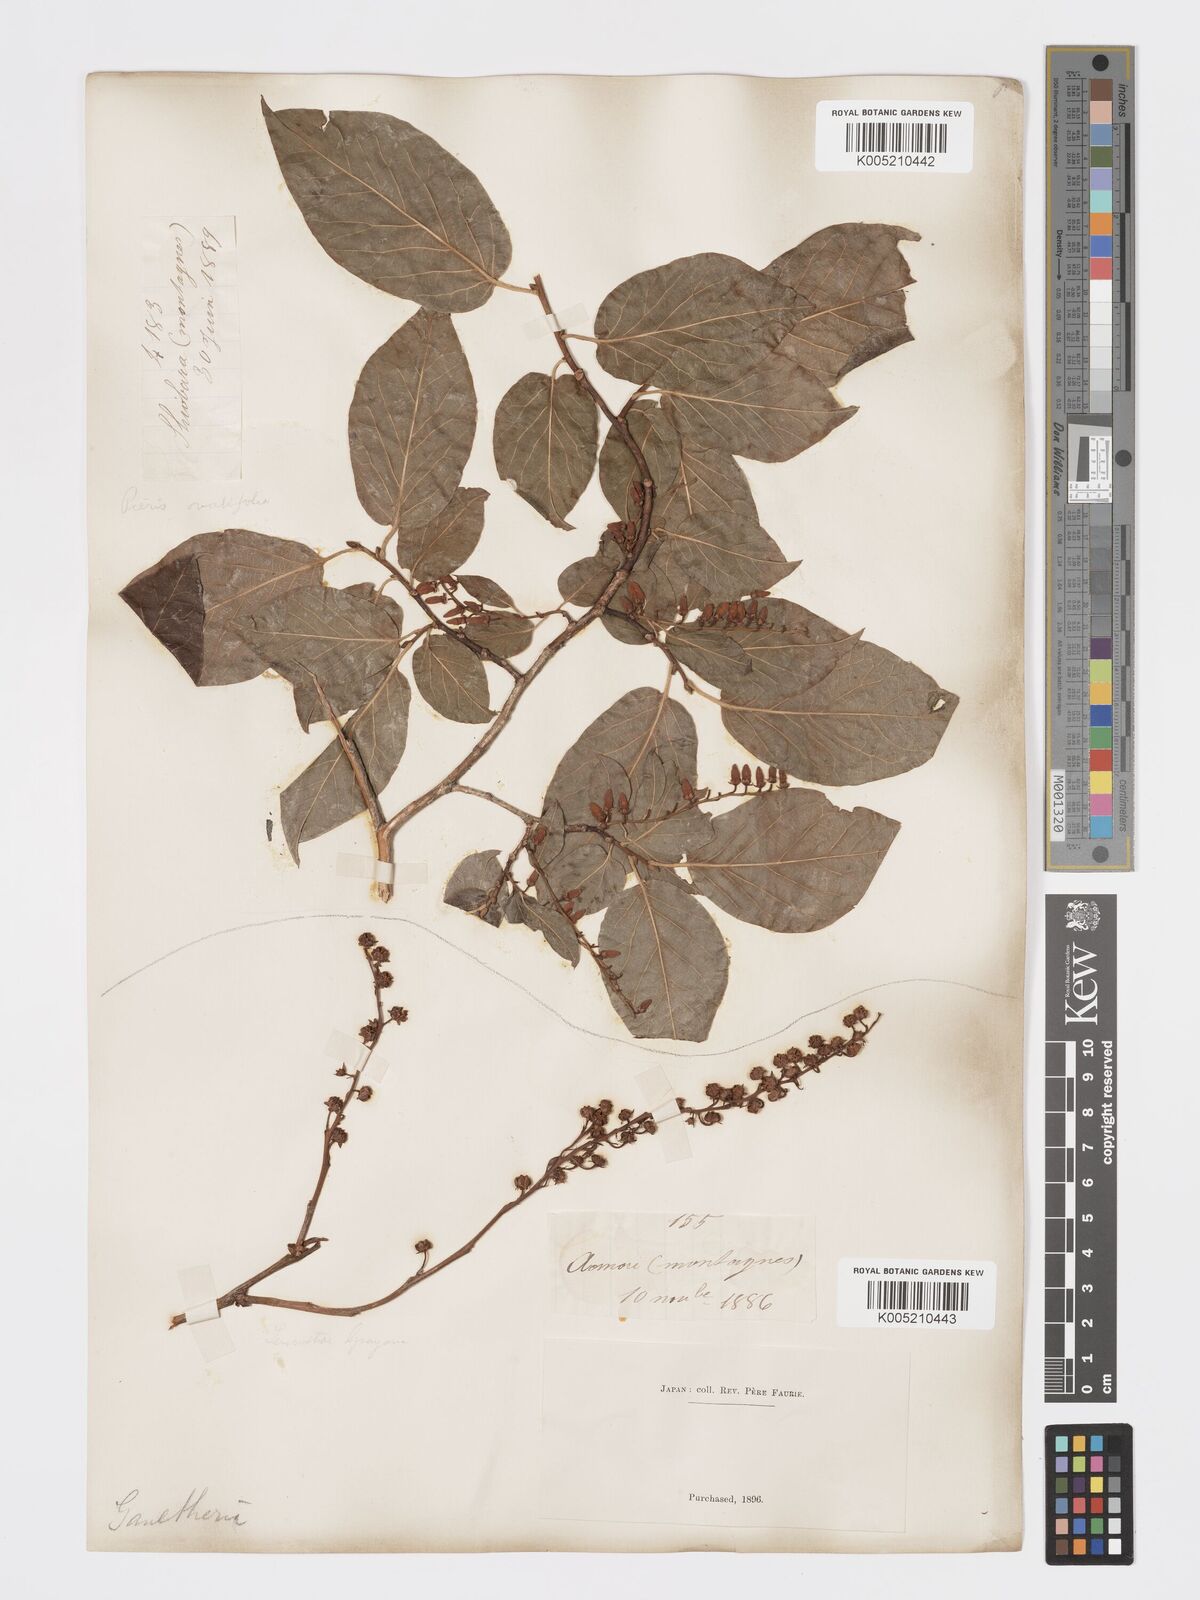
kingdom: Plantae
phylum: Tracheophyta
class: Magnoliopsida
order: Ericales
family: Ericaceae
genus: Lyonia
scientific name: Lyonia elliptica
